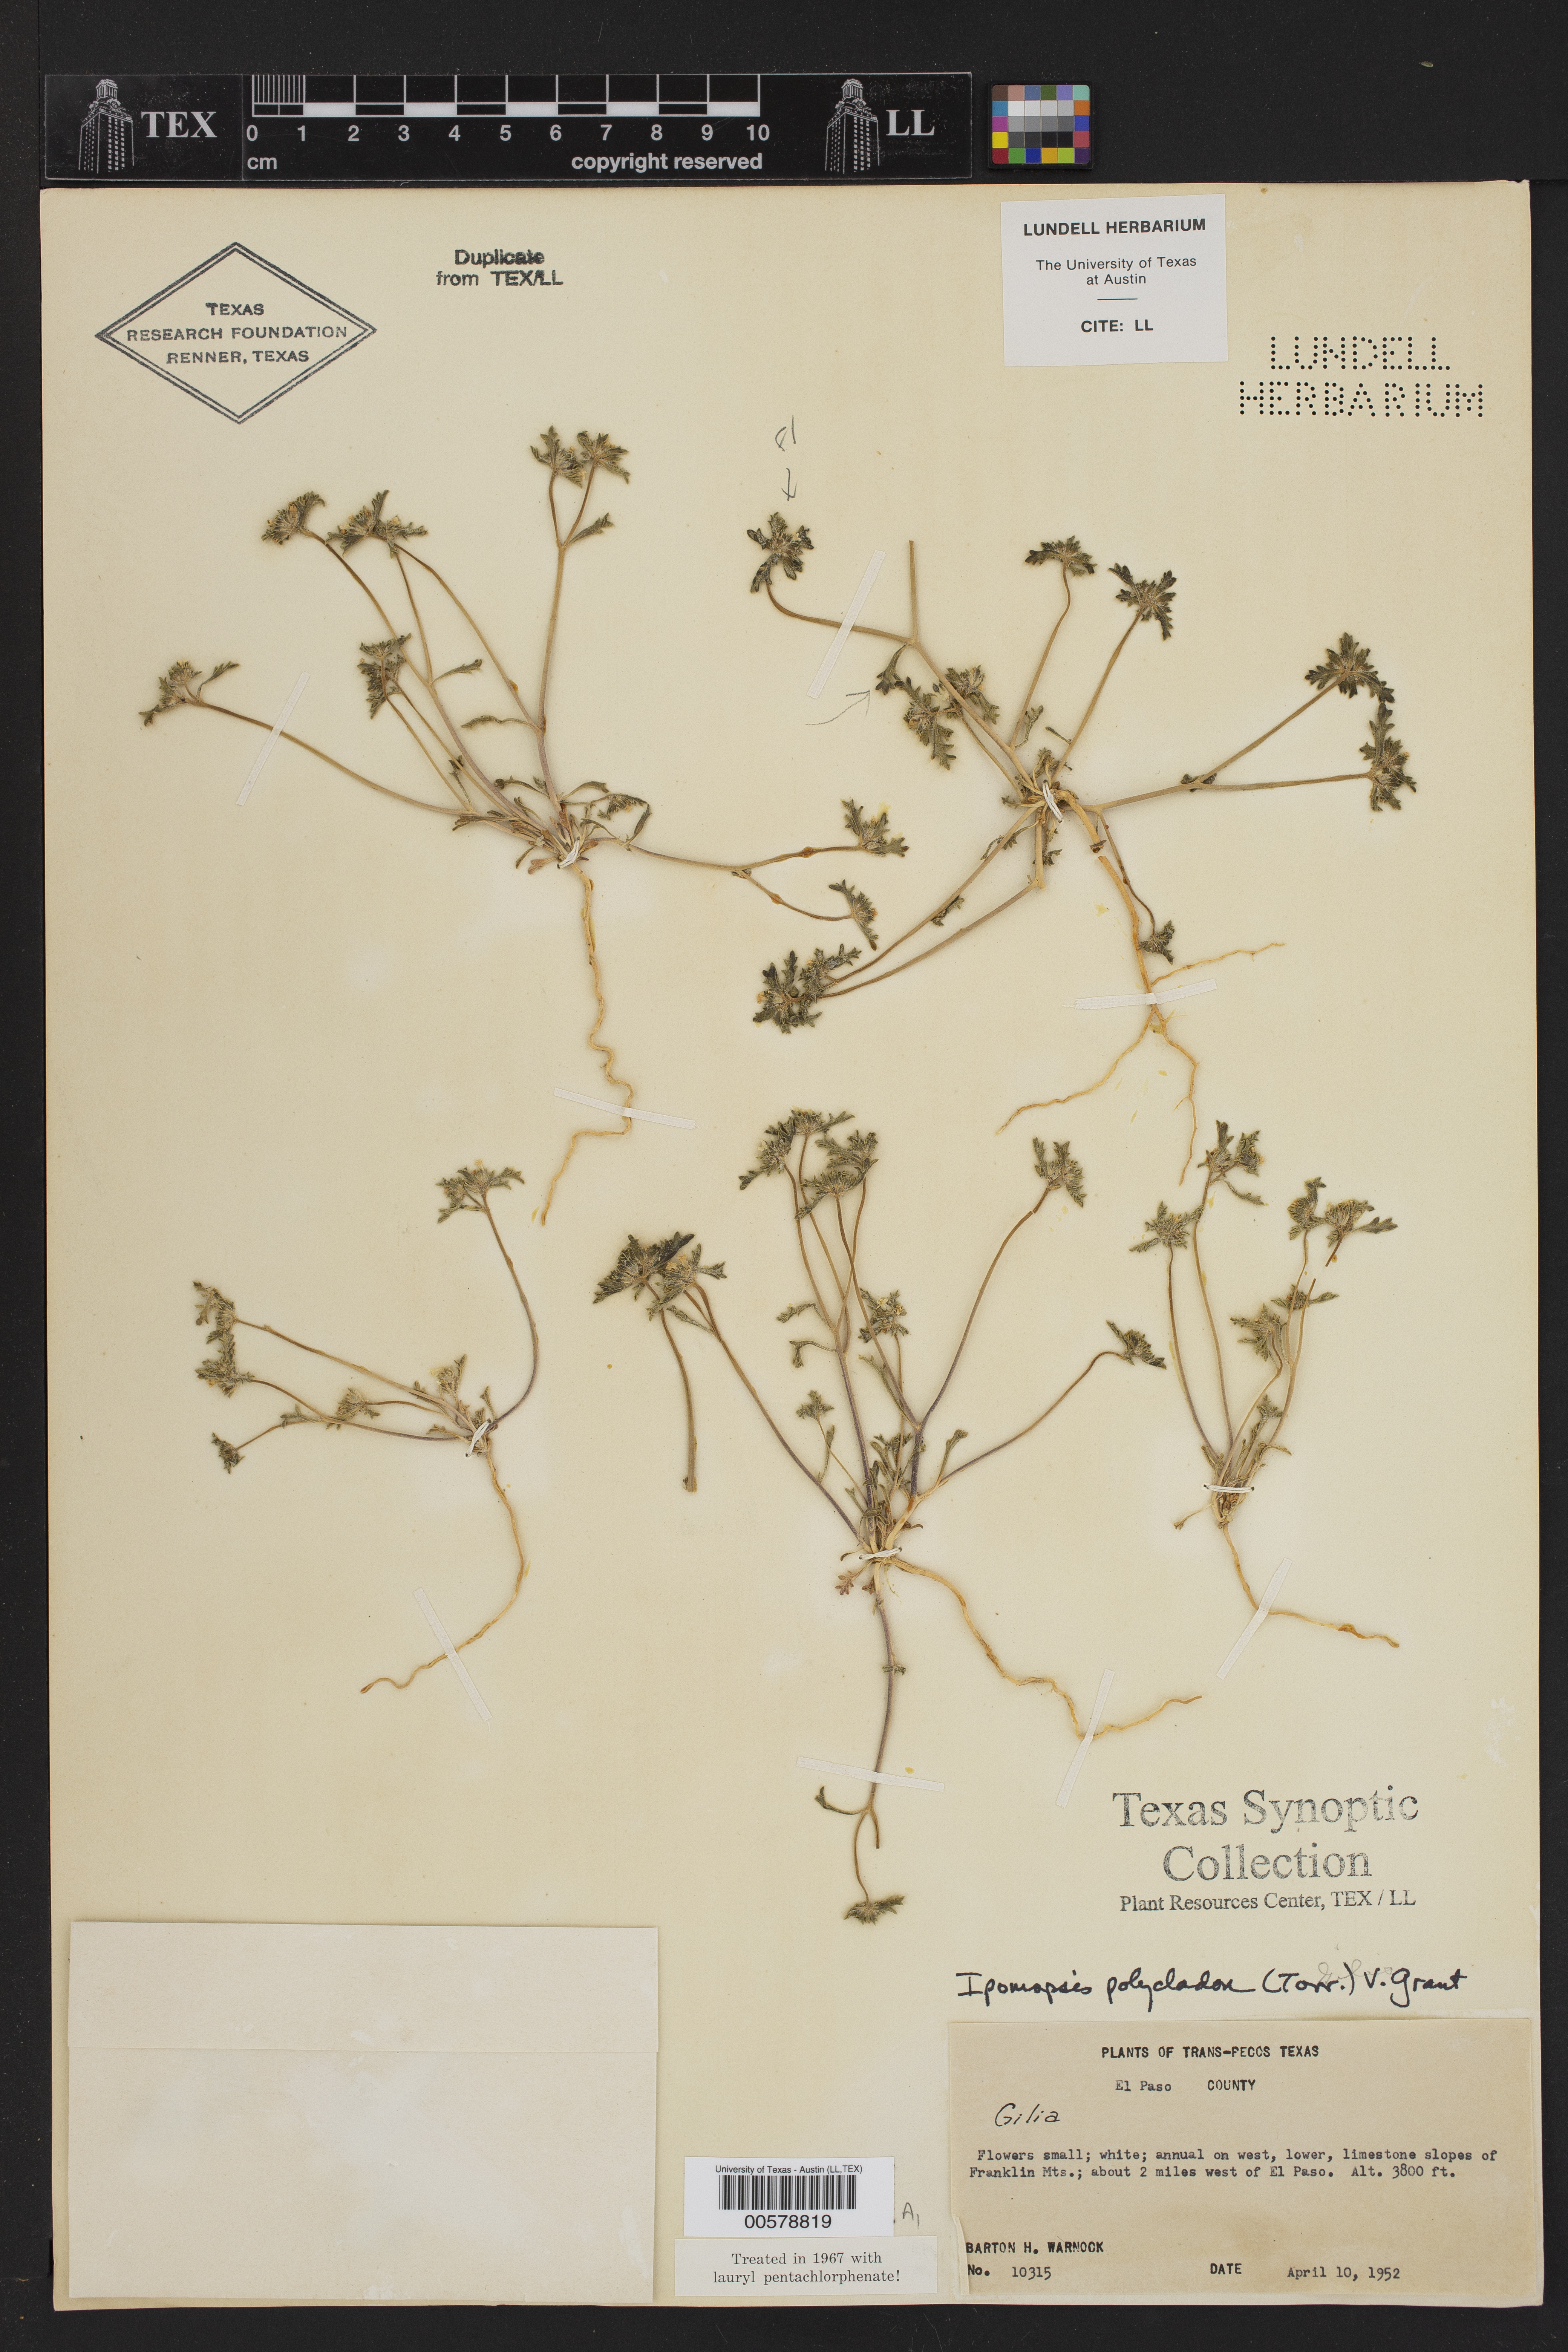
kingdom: Plantae
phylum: Tracheophyta
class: Magnoliopsida
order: Ericales
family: Polemoniaceae
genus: Ipomopsis
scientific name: Ipomopsis polycladon
